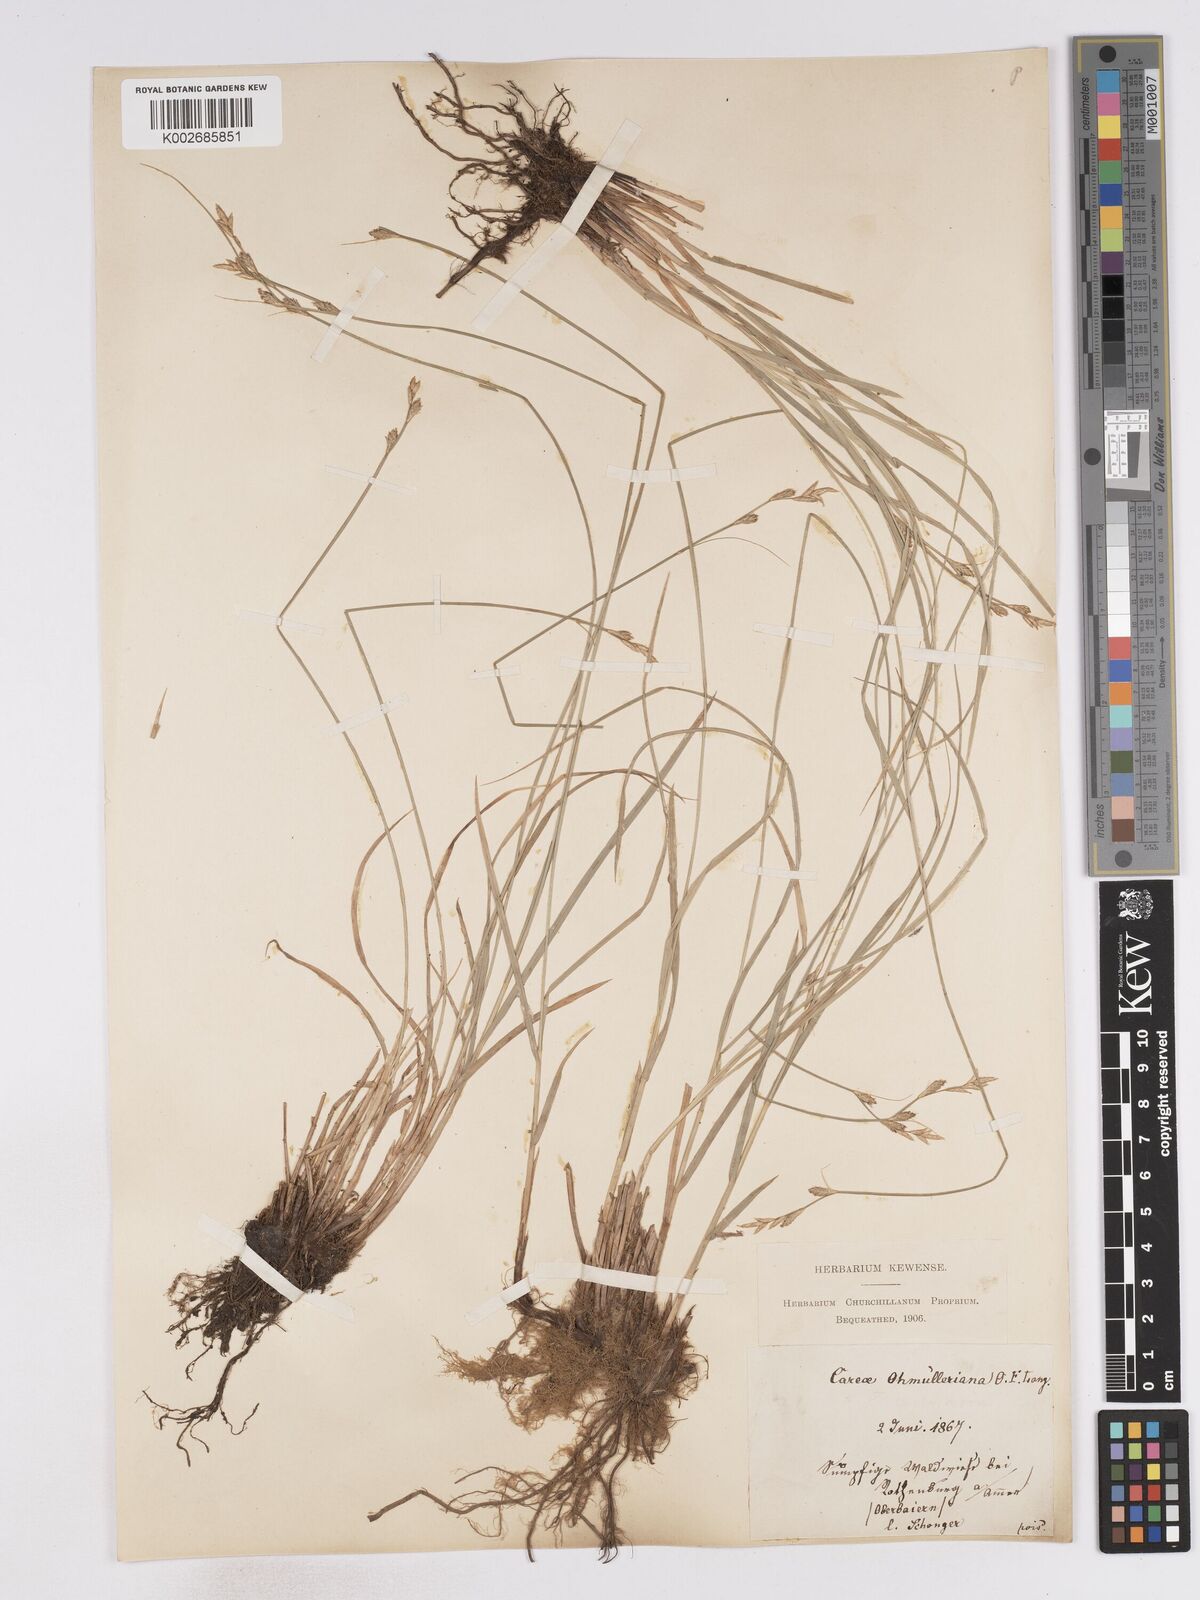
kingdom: Plantae
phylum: Tracheophyta
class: Liliopsida
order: Poales
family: Cyperaceae
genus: Carex
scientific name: Carex remota
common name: Remote sedge
